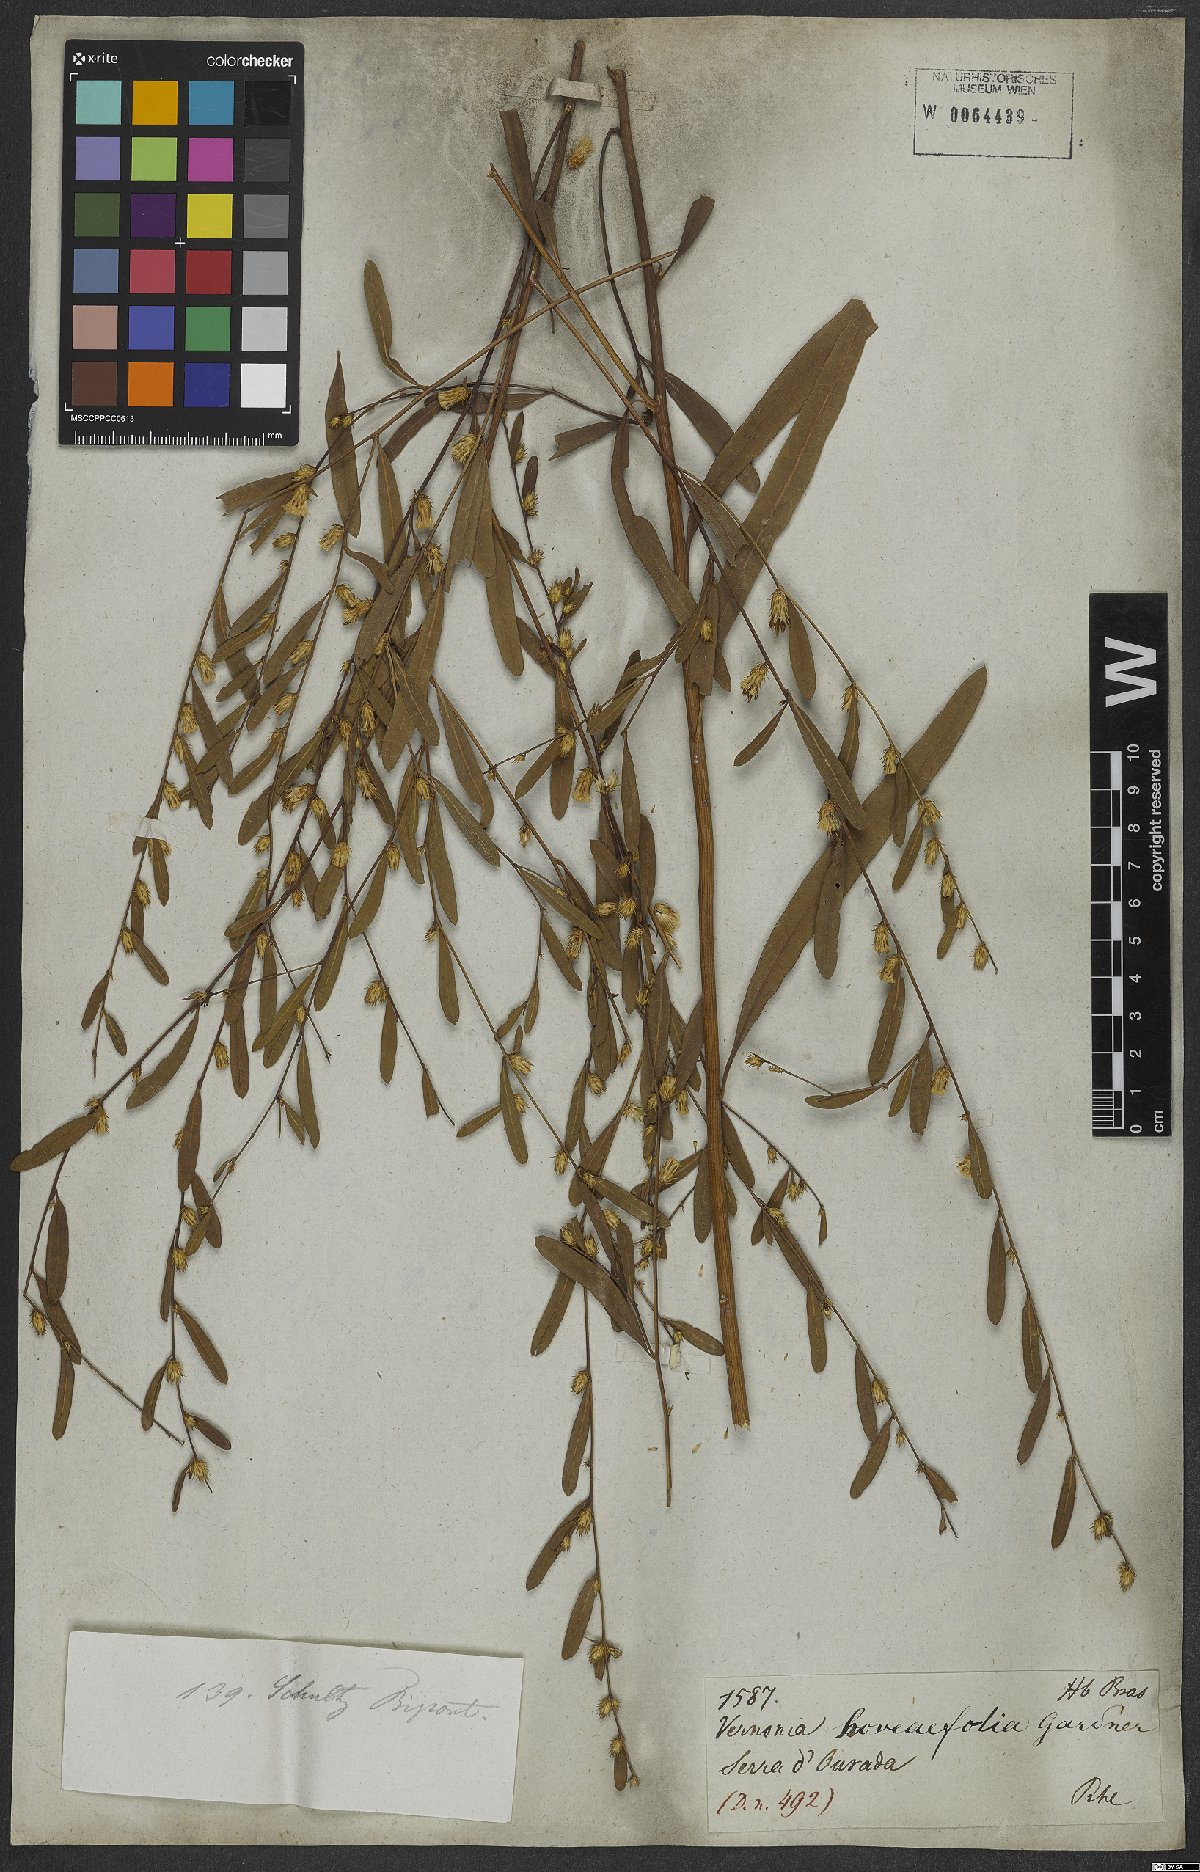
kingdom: Plantae
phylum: Tracheophyta
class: Magnoliopsida
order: Asterales
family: Asteraceae
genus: Lessingianthus
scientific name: Lessingianthus hoveaefolius
